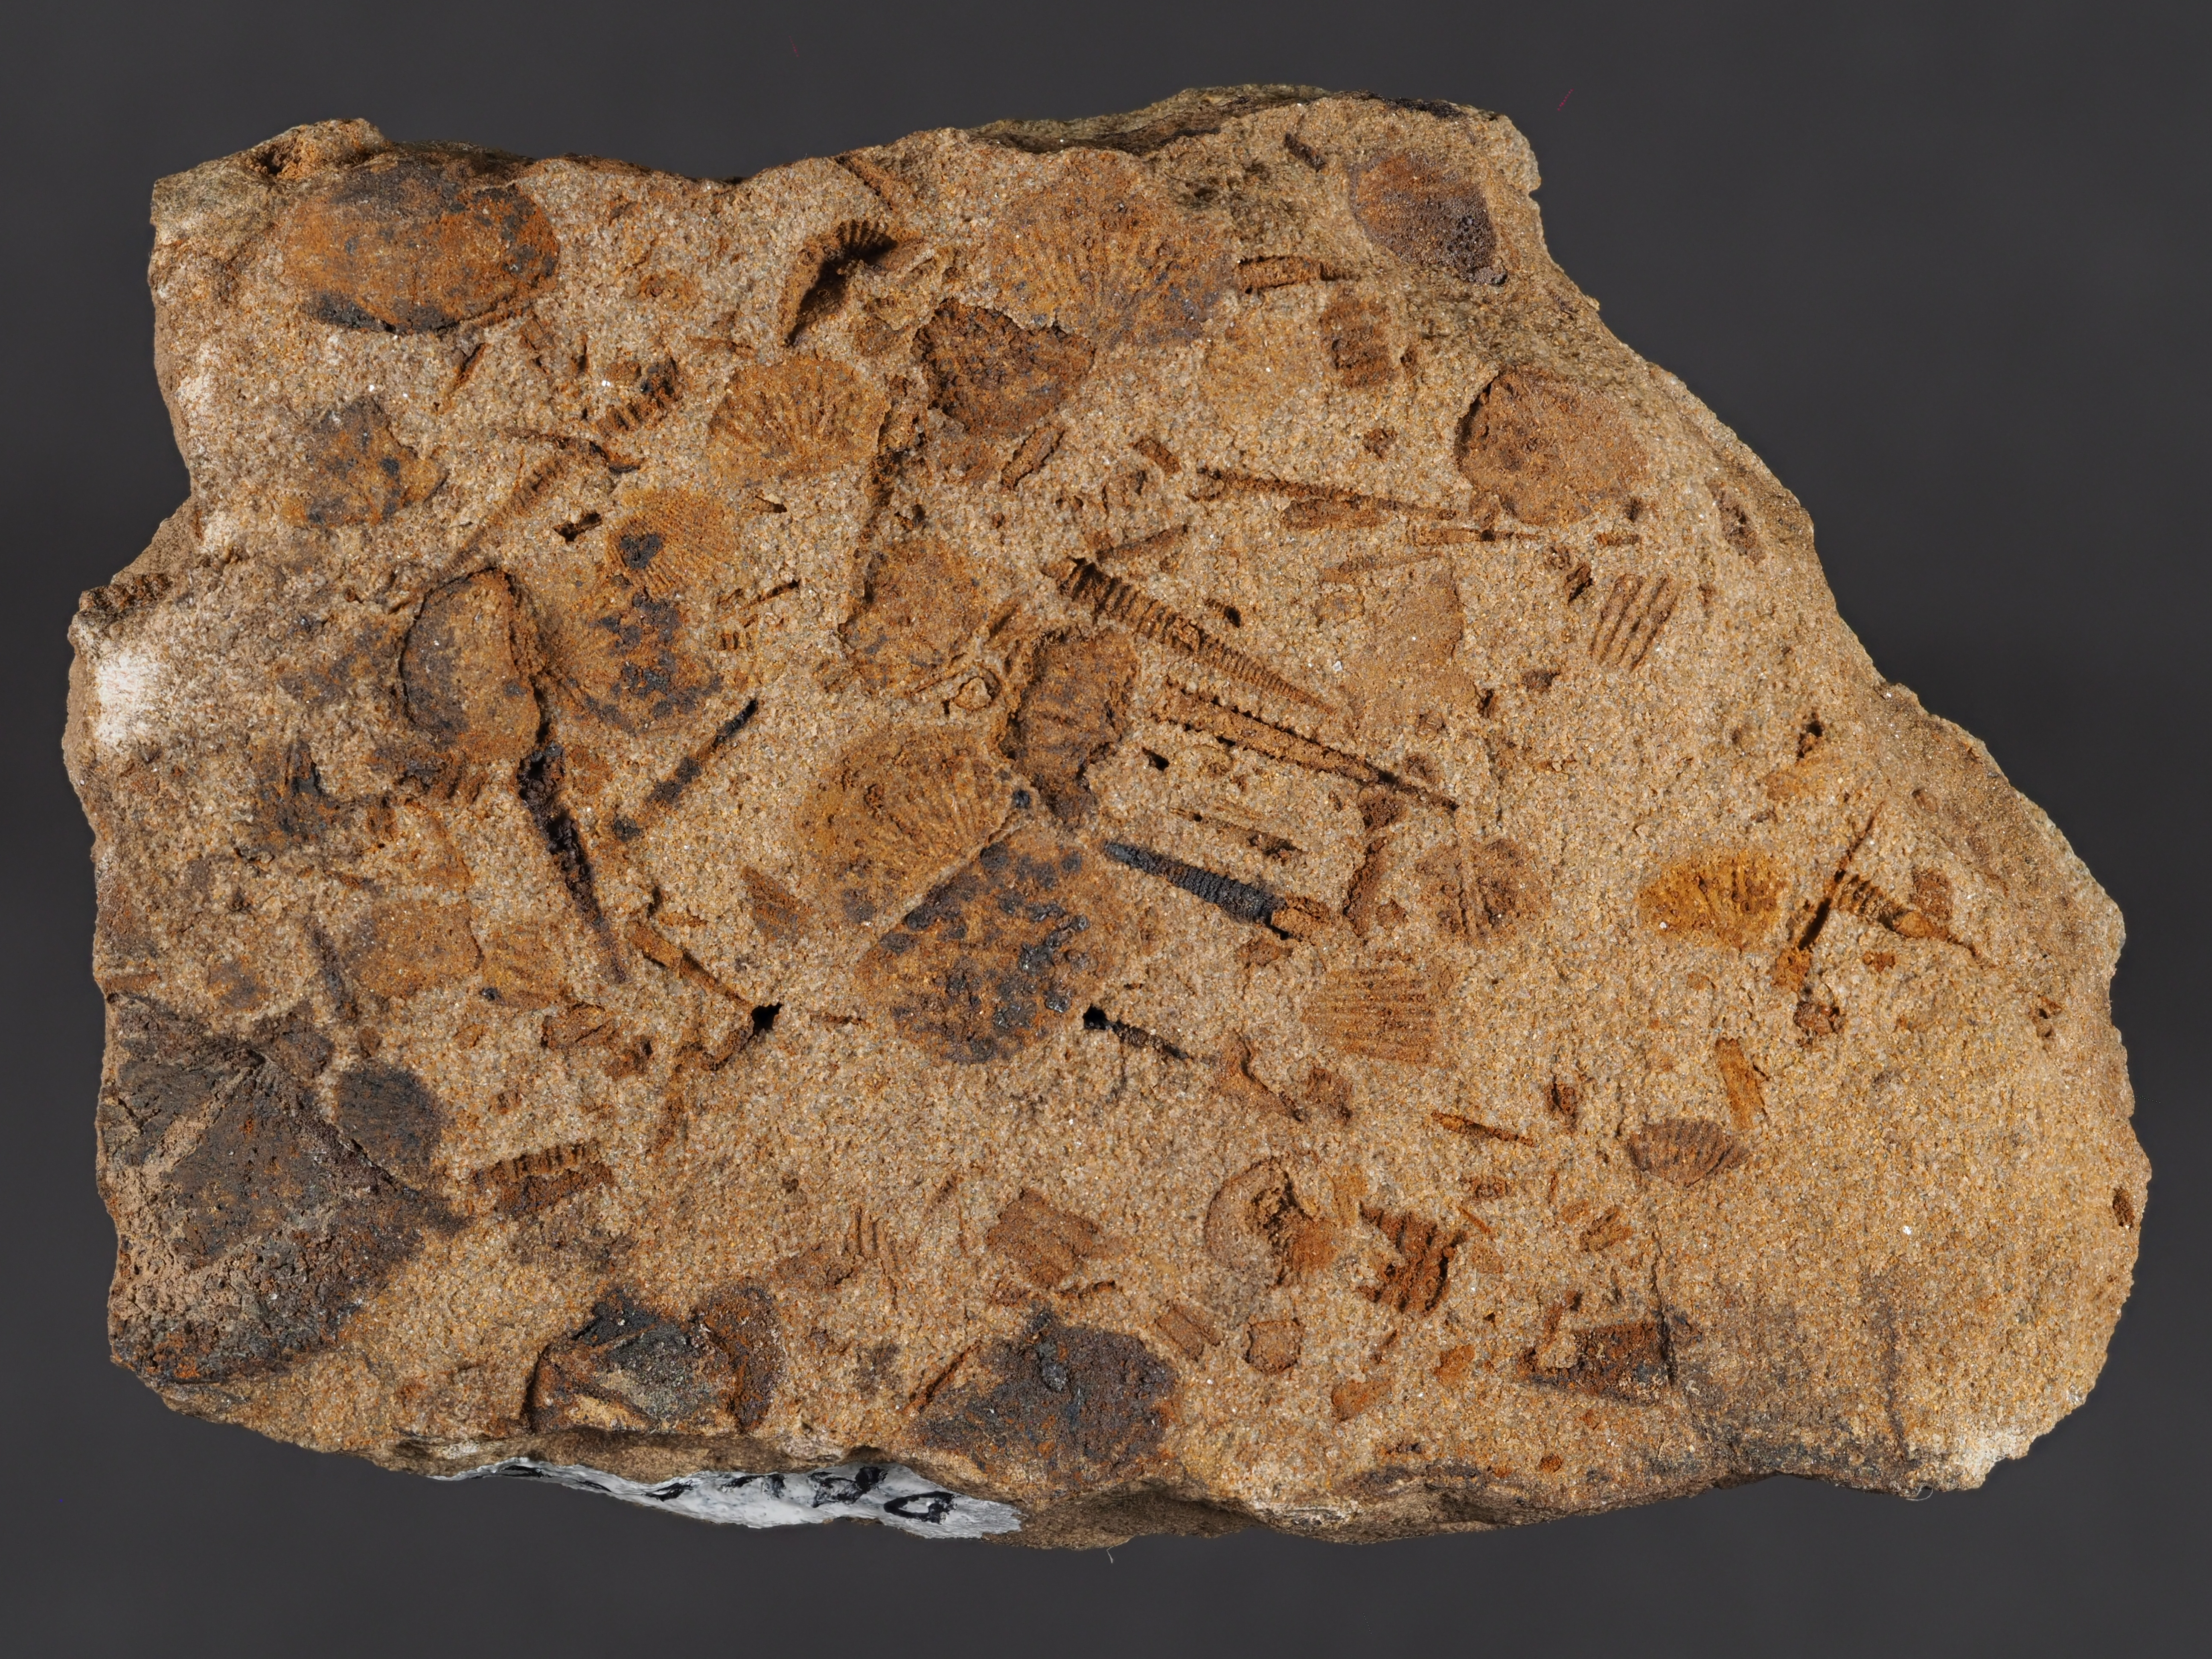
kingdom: Animalia
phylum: Mollusca
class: Bivalvia
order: Ostreida
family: Pterineidae
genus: Leptodesma
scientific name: Leptodesma
